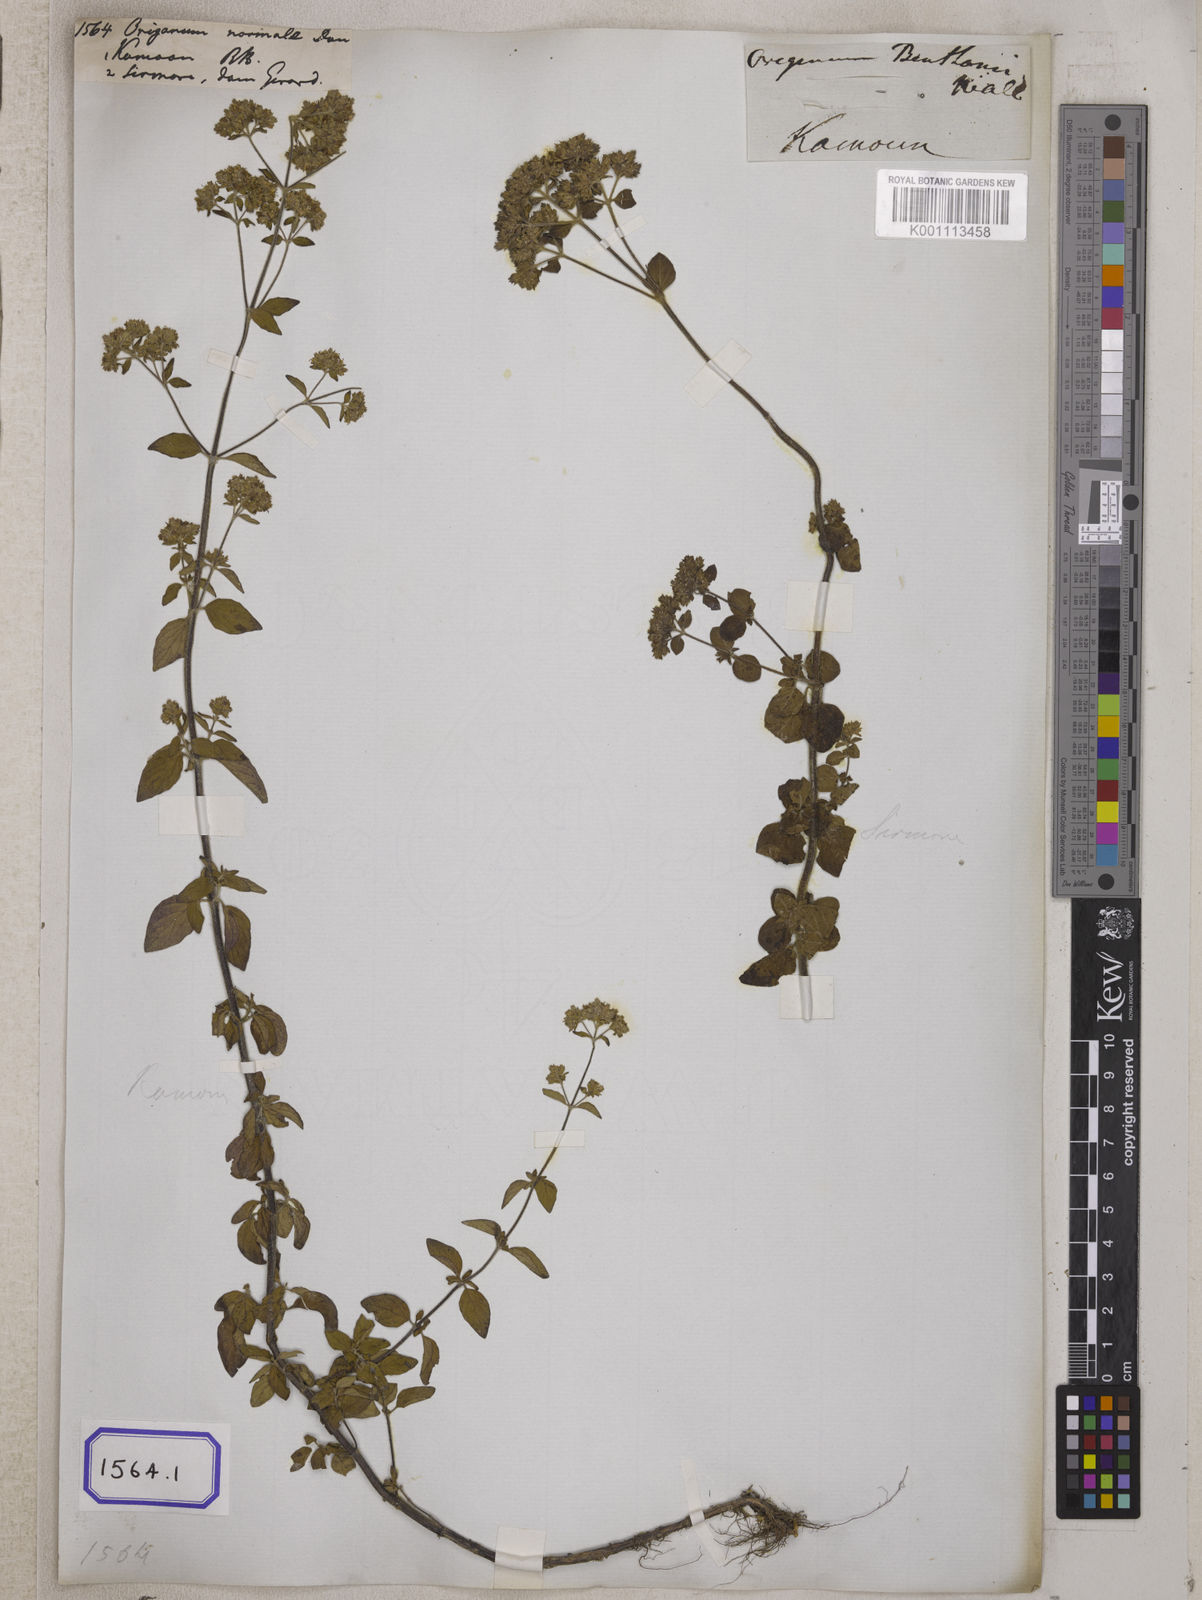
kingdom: Plantae
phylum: Tracheophyta
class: Magnoliopsida
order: Lamiales
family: Lamiaceae
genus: Origanum
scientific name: Origanum vulgare
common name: Wild marjoram
